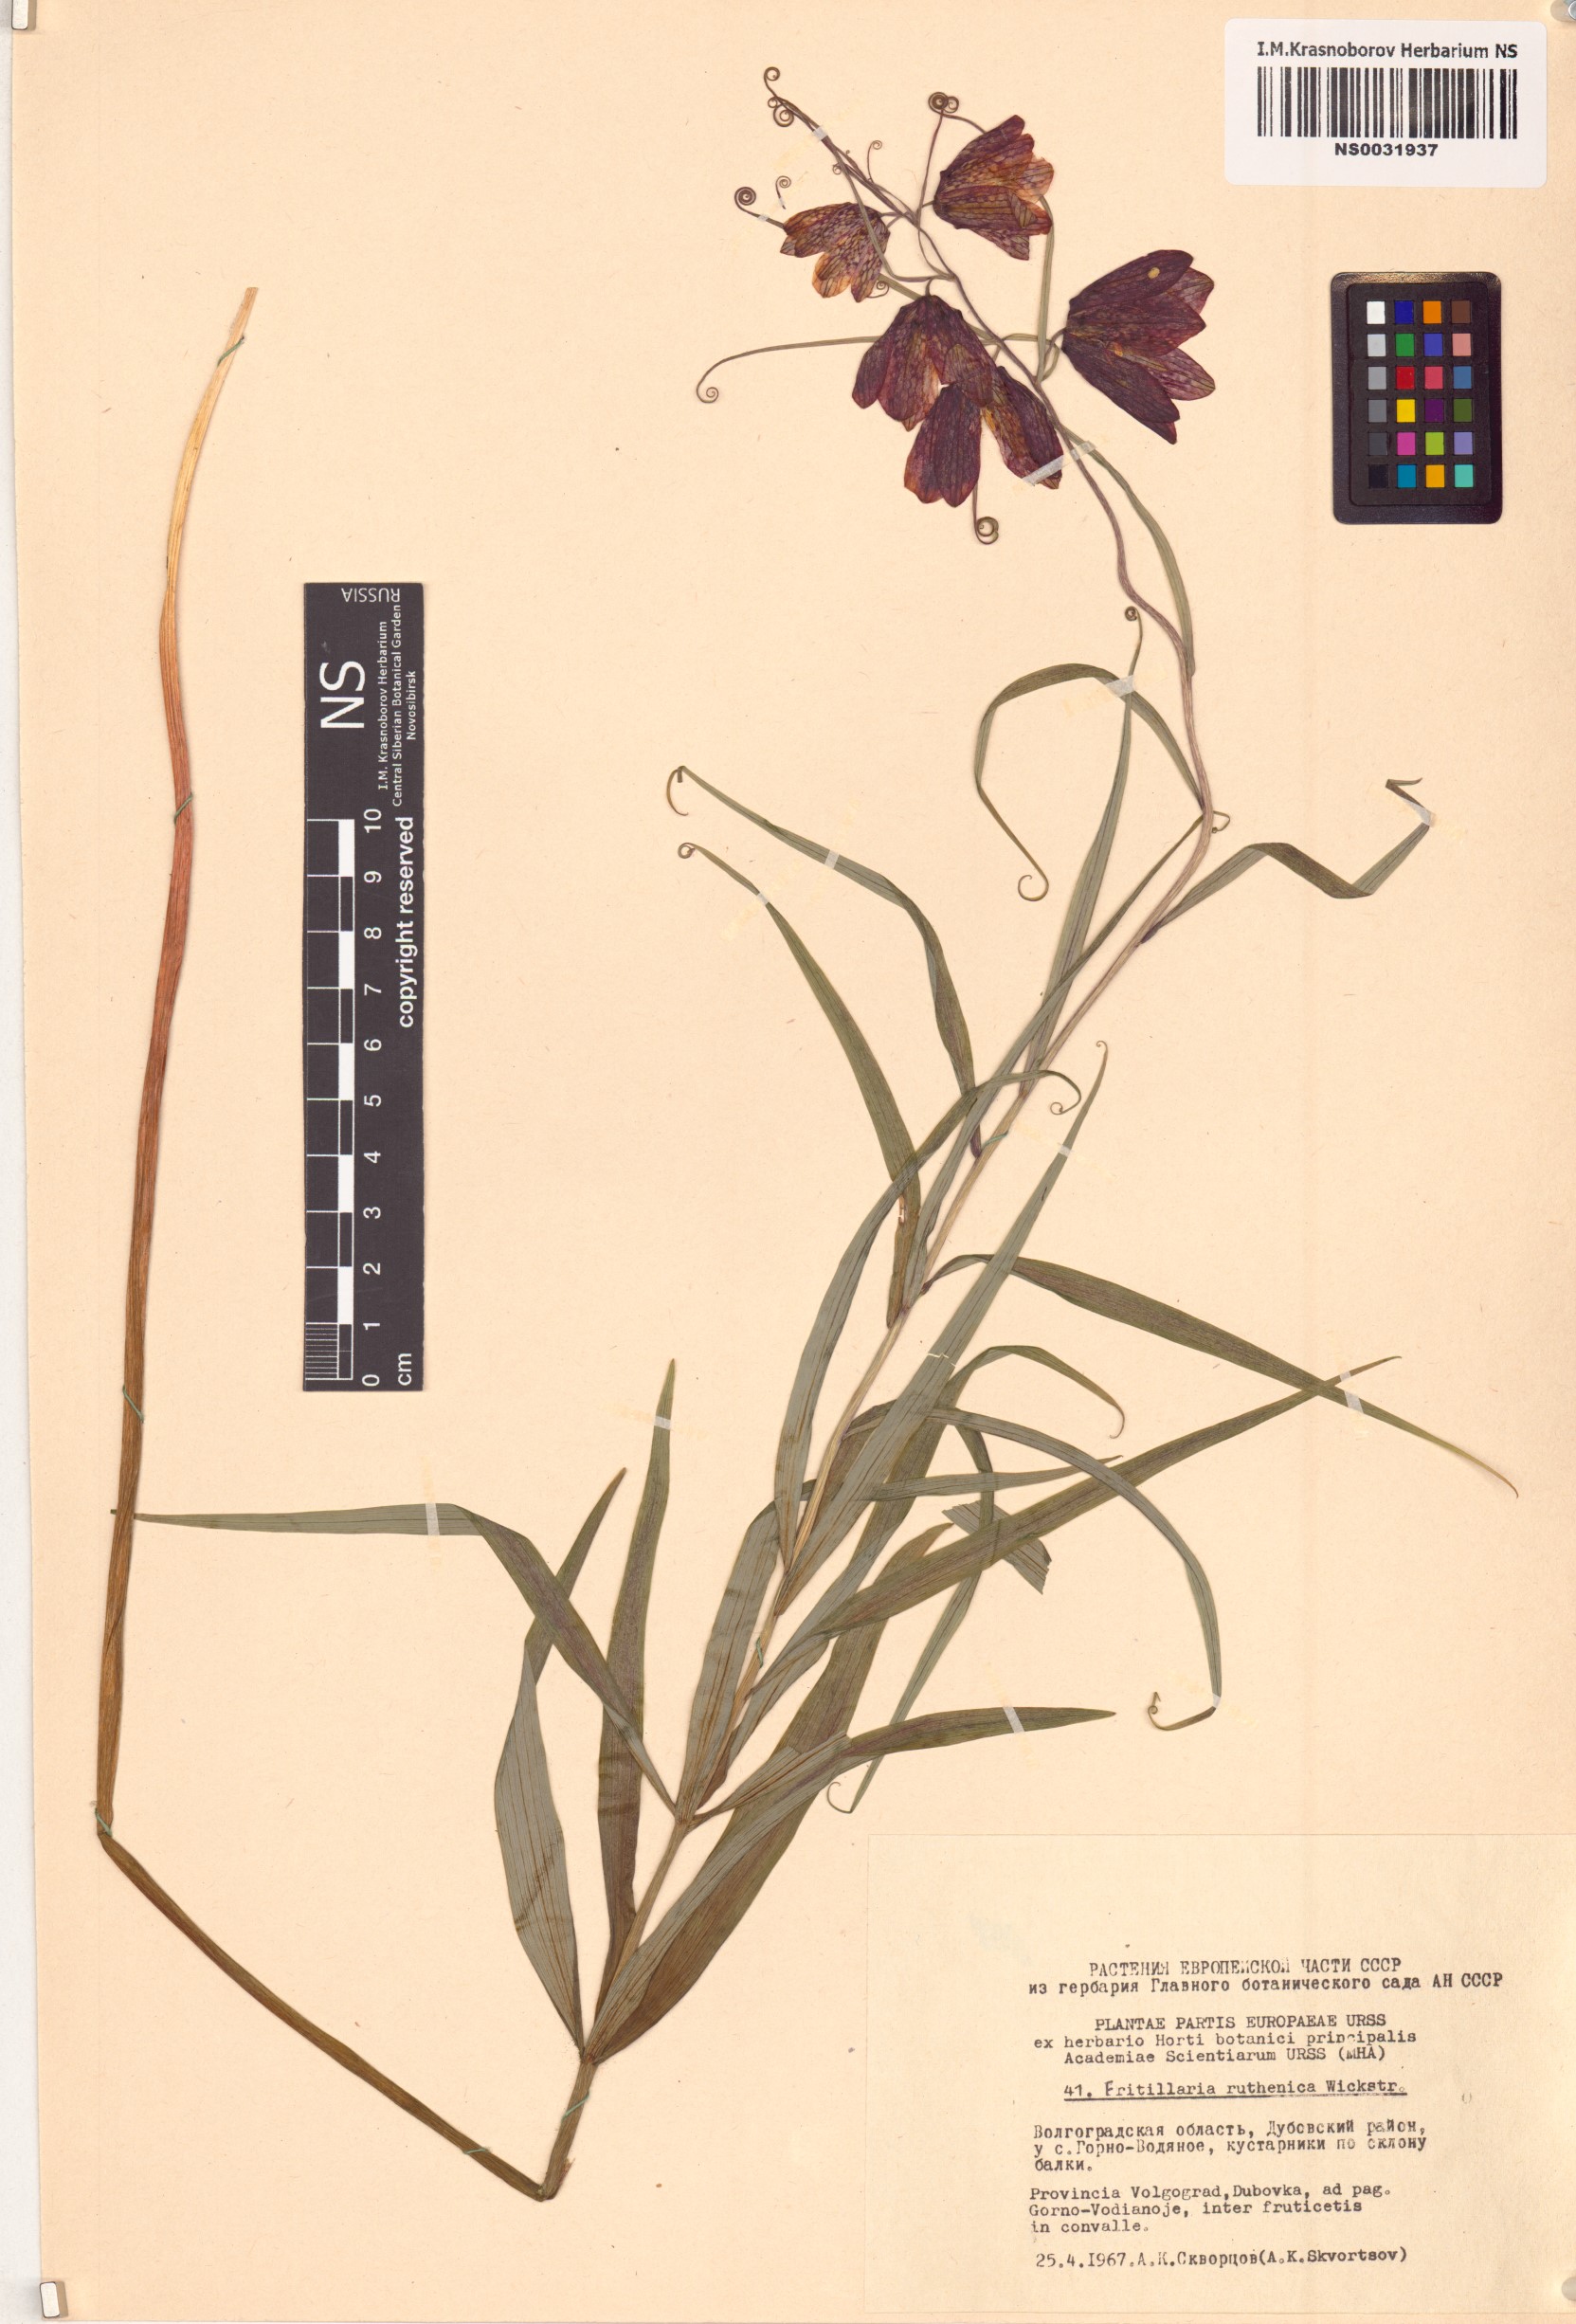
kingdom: Plantae
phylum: Tracheophyta
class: Liliopsida
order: Liliales
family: Liliaceae
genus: Fritillaria
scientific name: Fritillaria ruthenica
